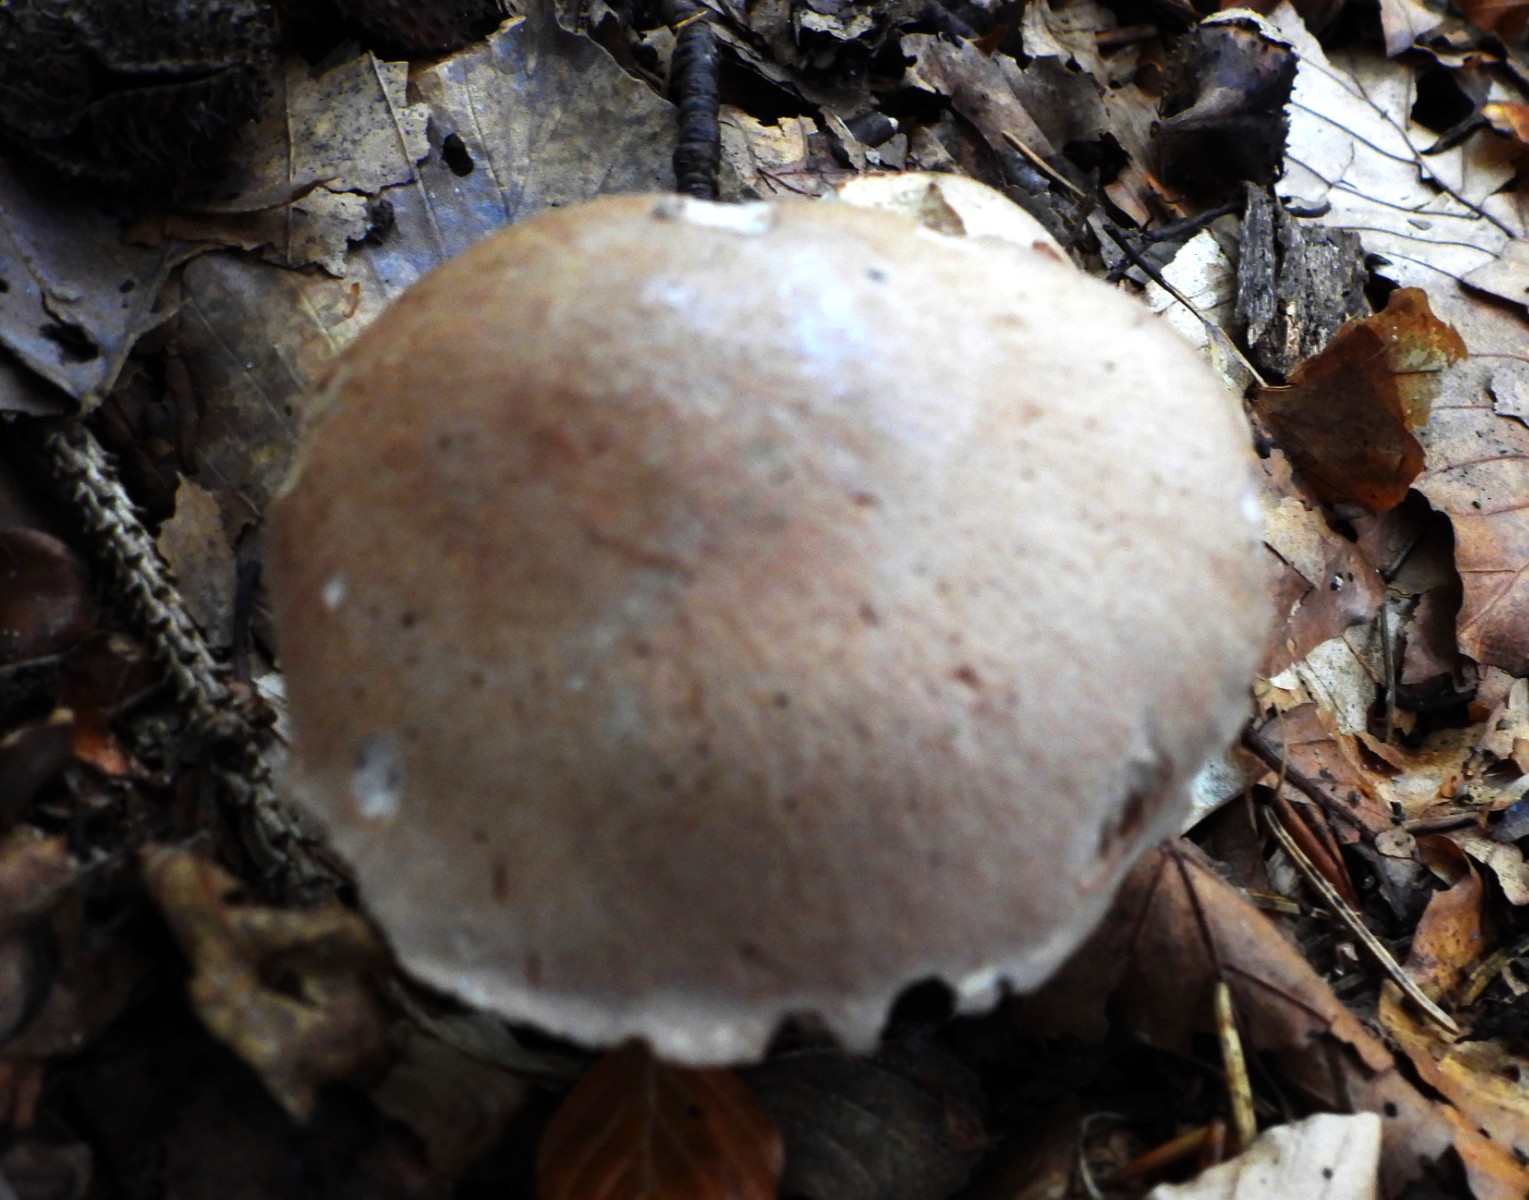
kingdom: Fungi
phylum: Basidiomycota
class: Agaricomycetes
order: Agaricales
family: Cortinariaceae
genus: Cortinarius
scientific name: Cortinarius torvus
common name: champignonagtig slørhat
